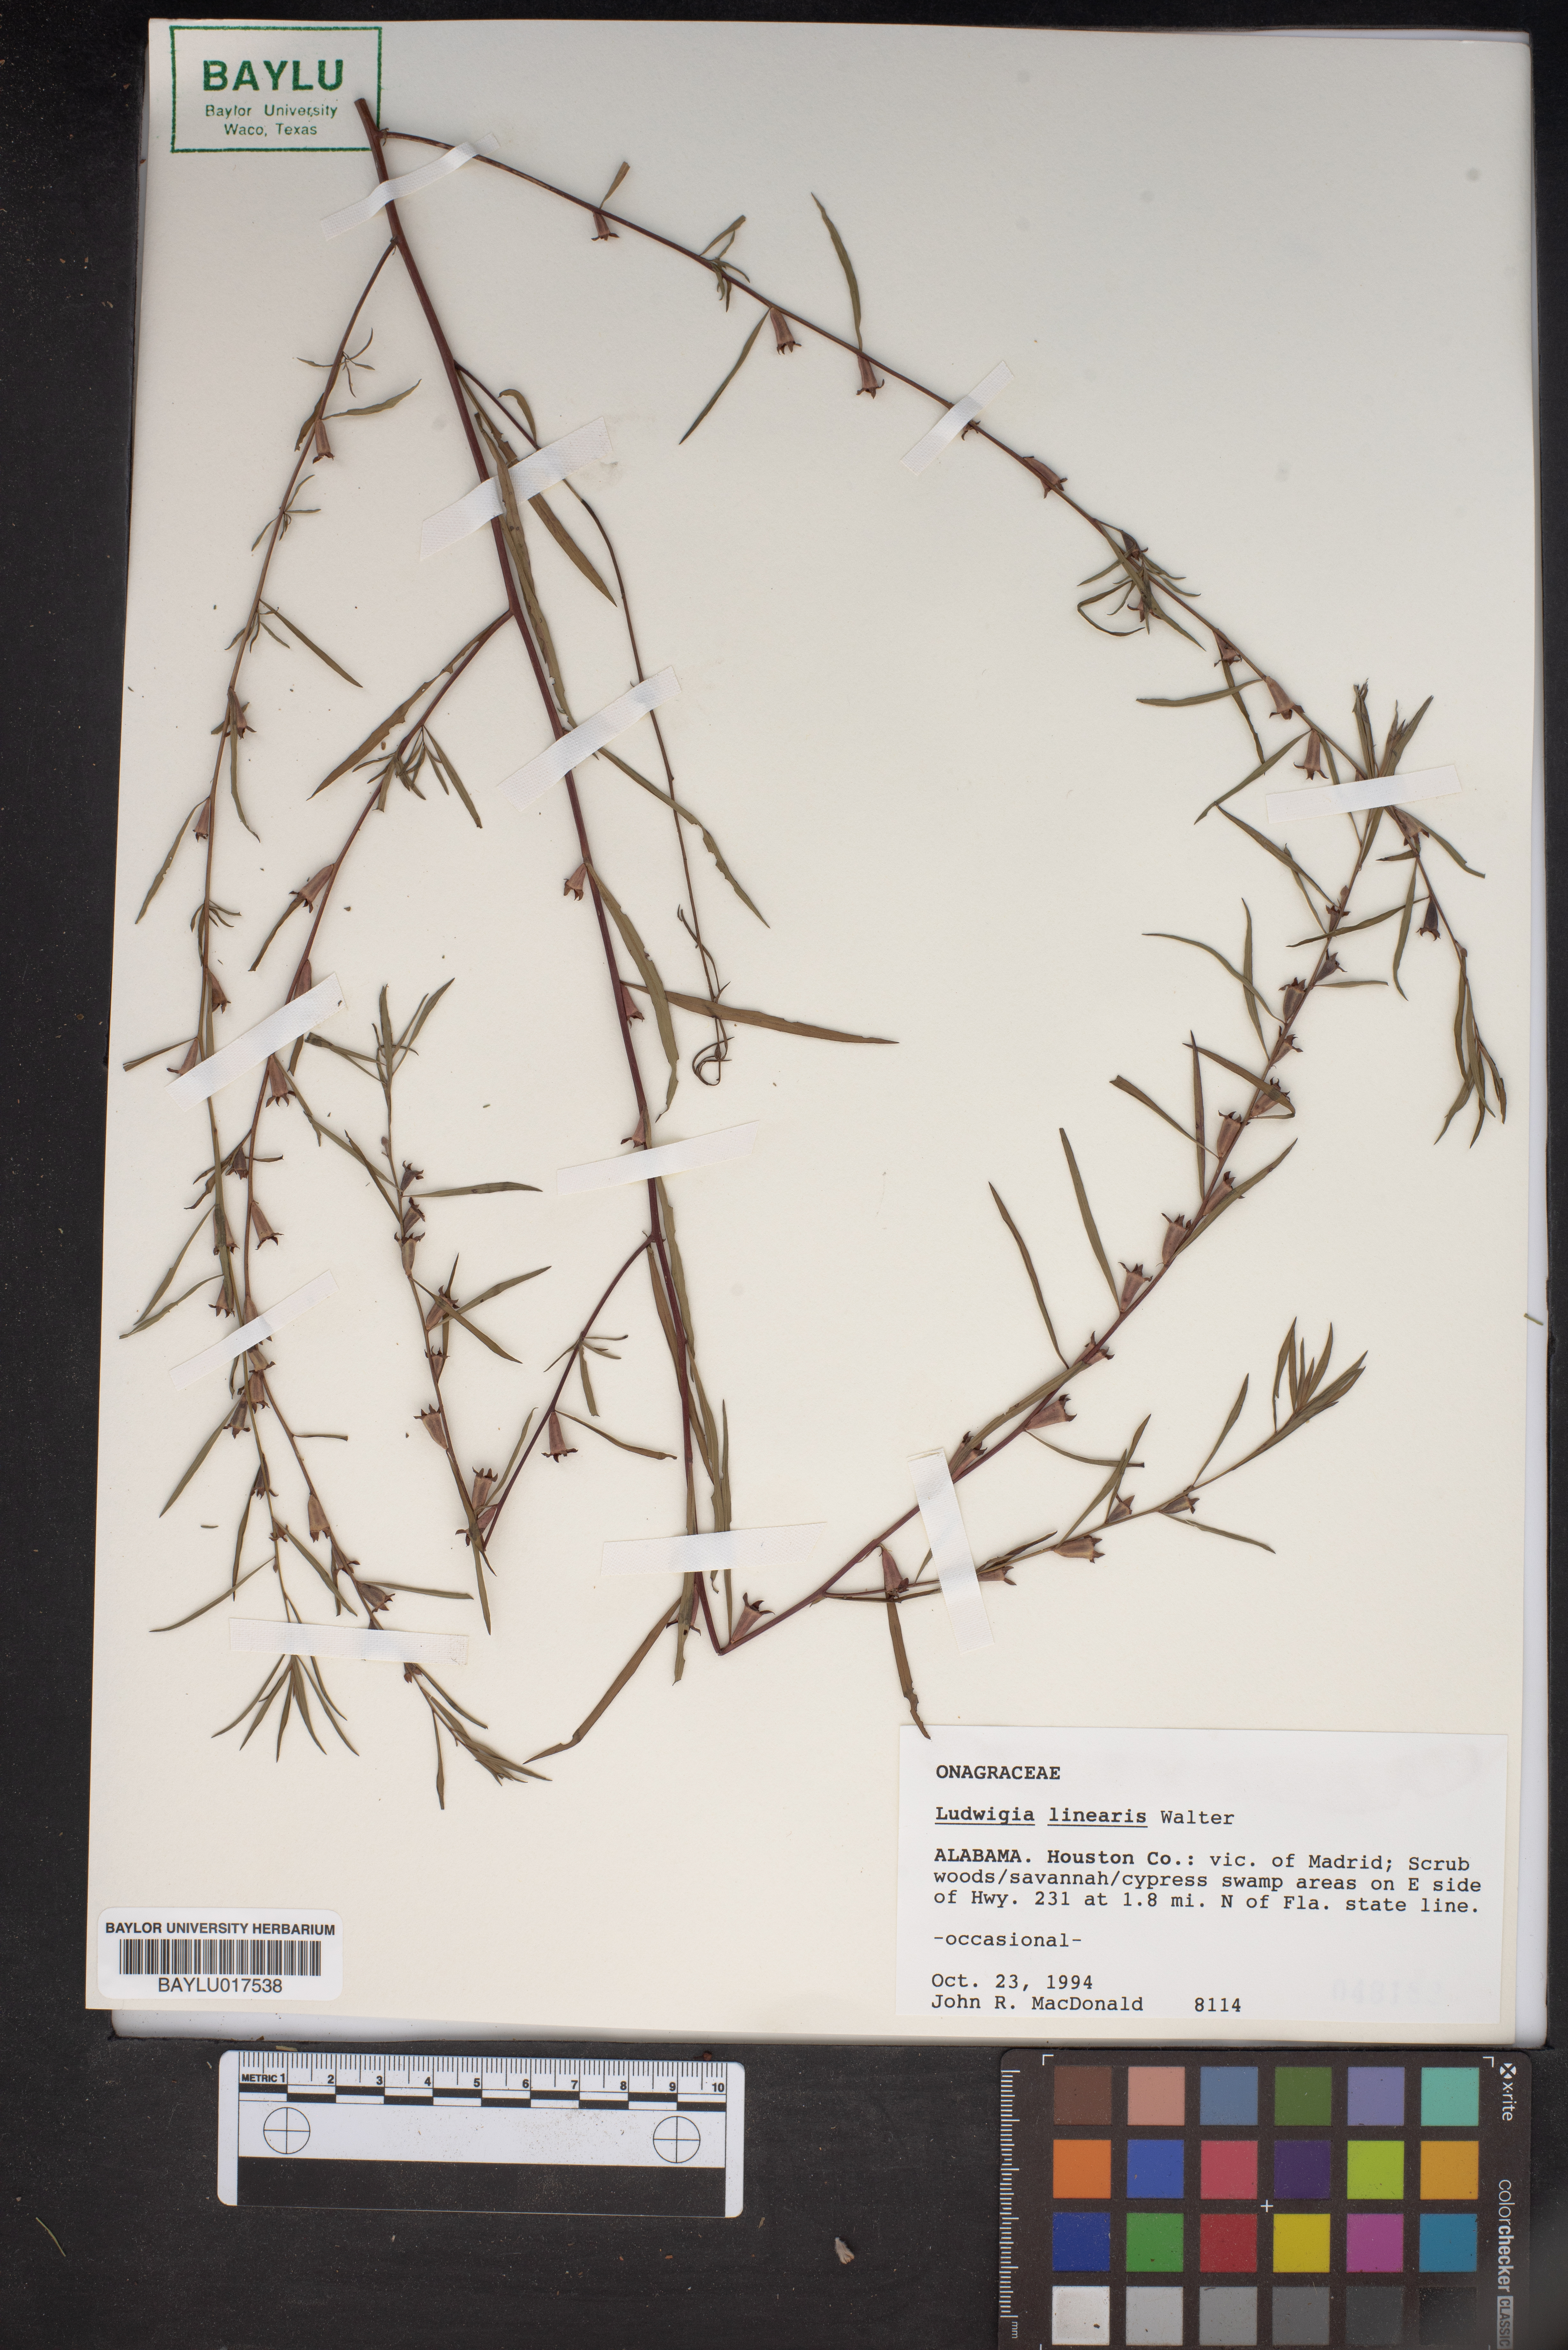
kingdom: Plantae
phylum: Tracheophyta
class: Magnoliopsida
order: Myrtales
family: Onagraceae
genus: Ludwigia
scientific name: Ludwigia linearis
